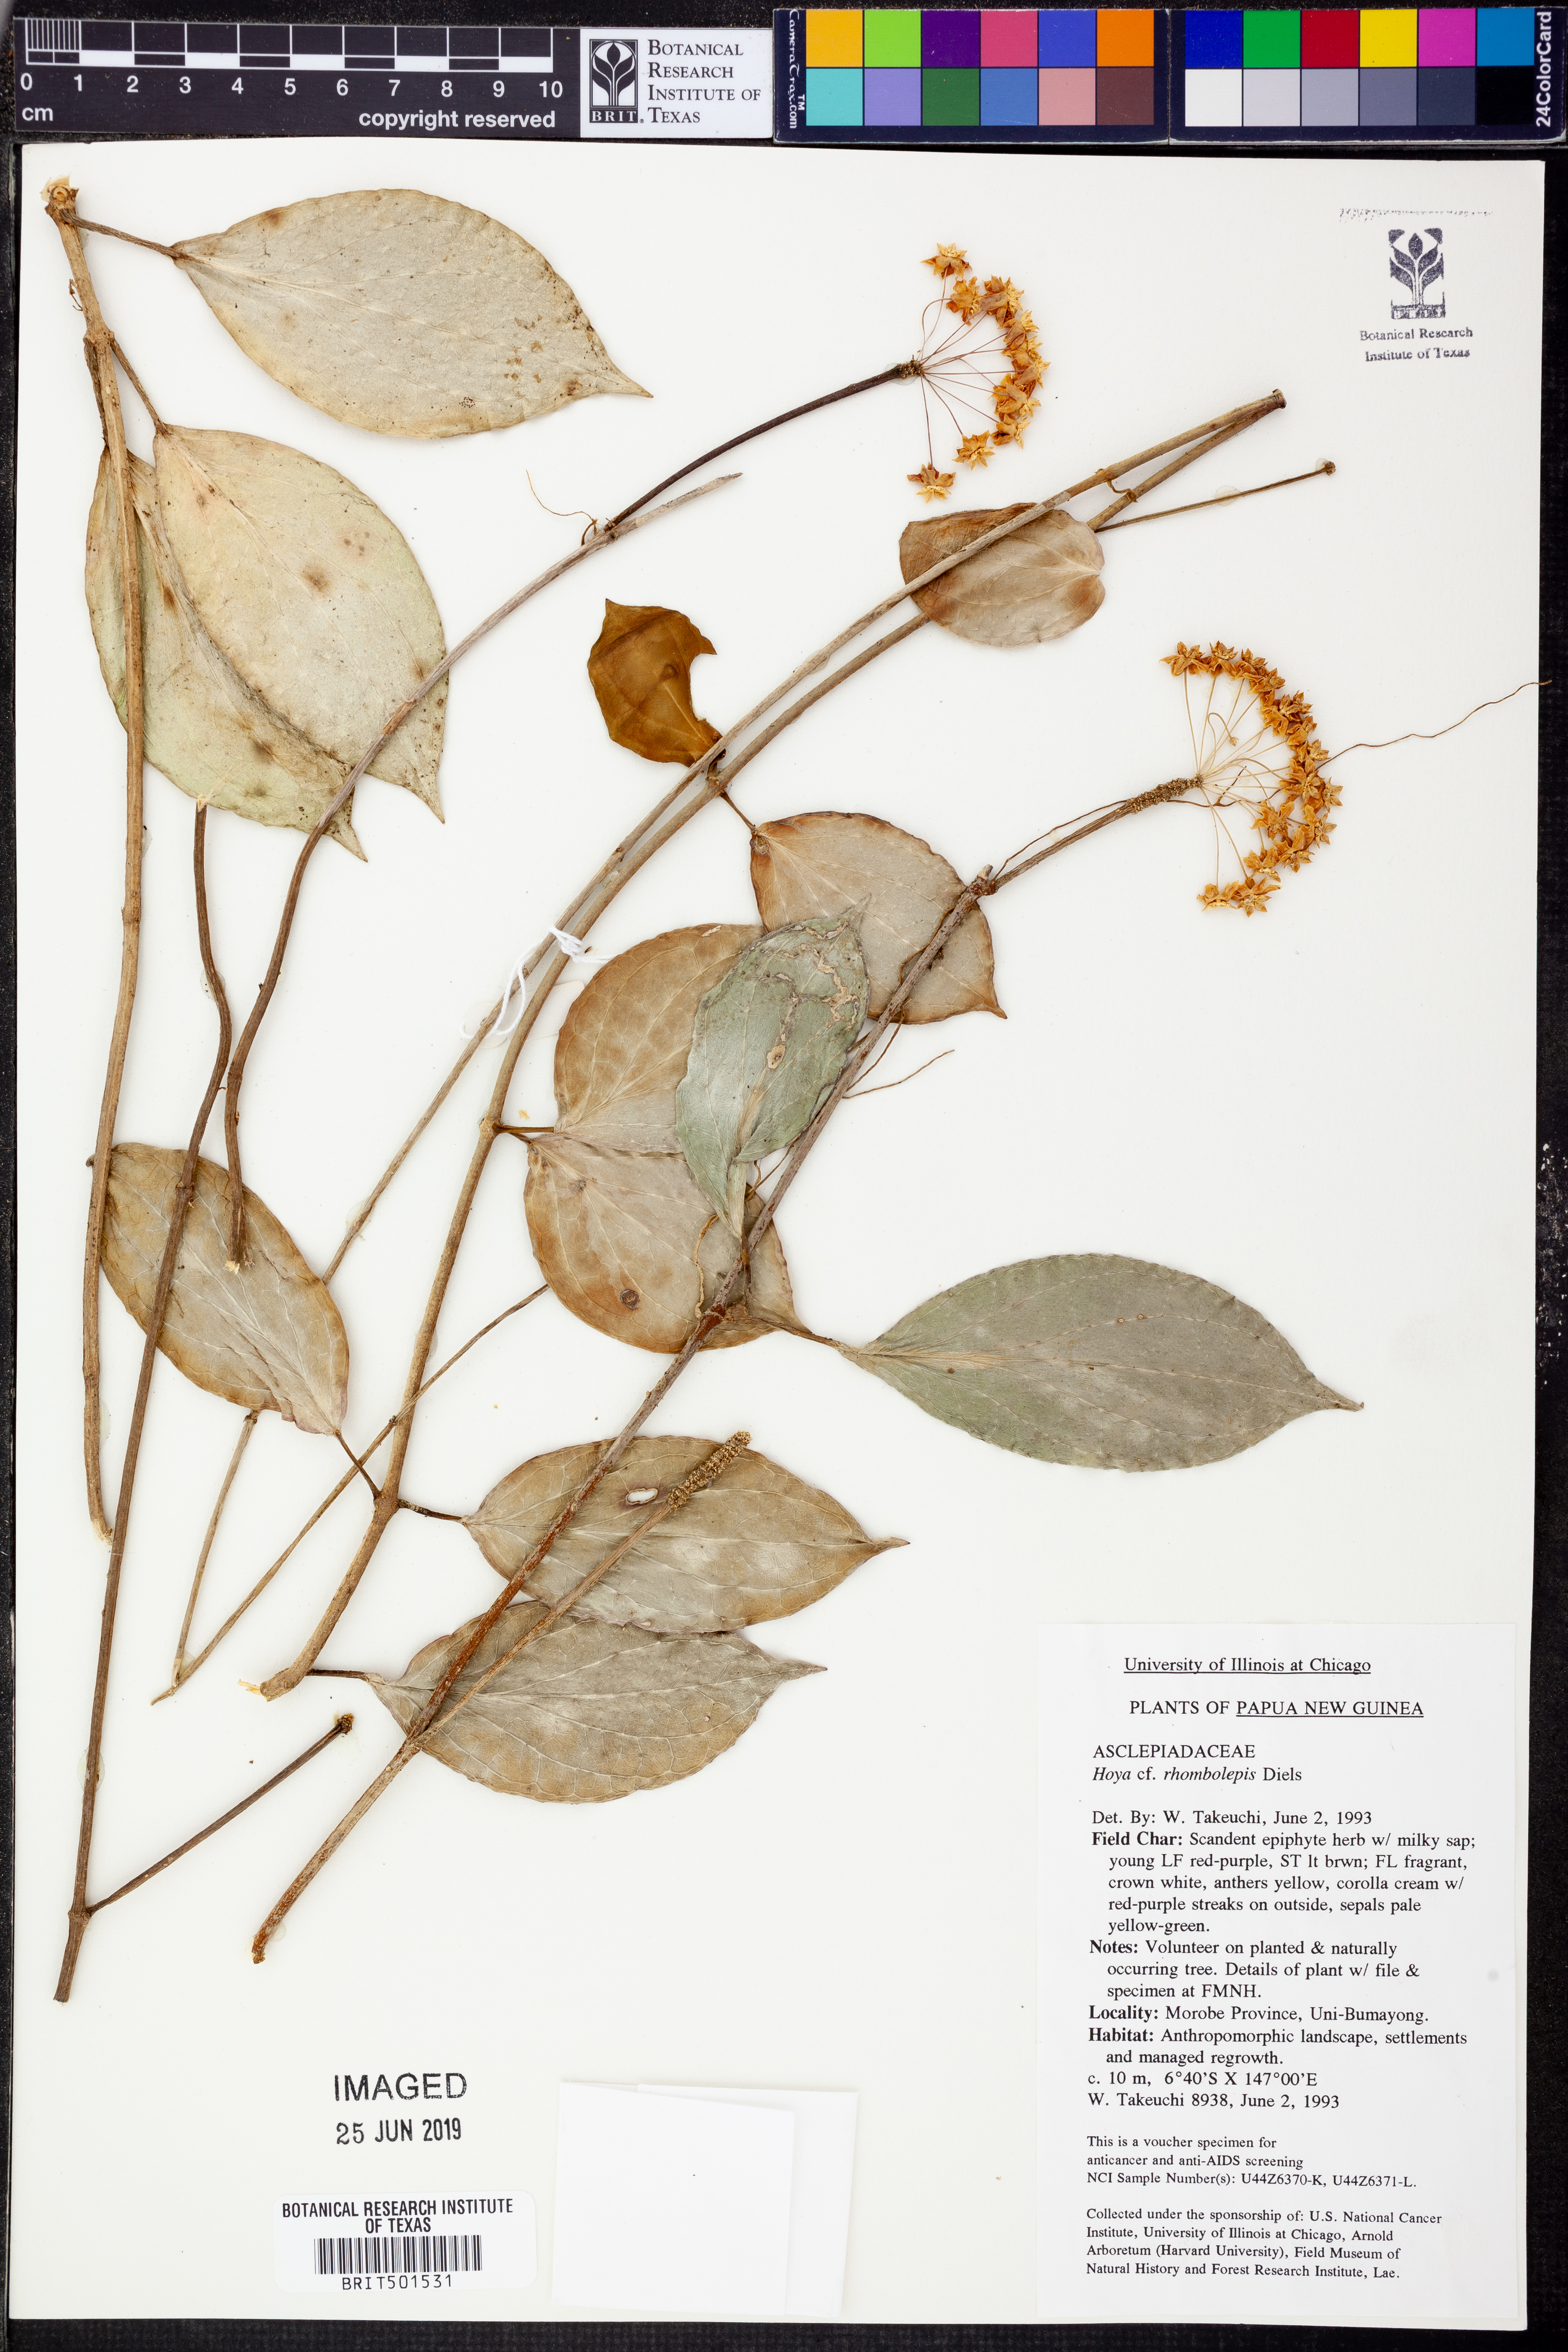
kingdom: Plantae
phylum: Tracheophyta
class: Magnoliopsida
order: Gentianales
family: Apocynaceae
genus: Hoya
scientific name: Hoya
